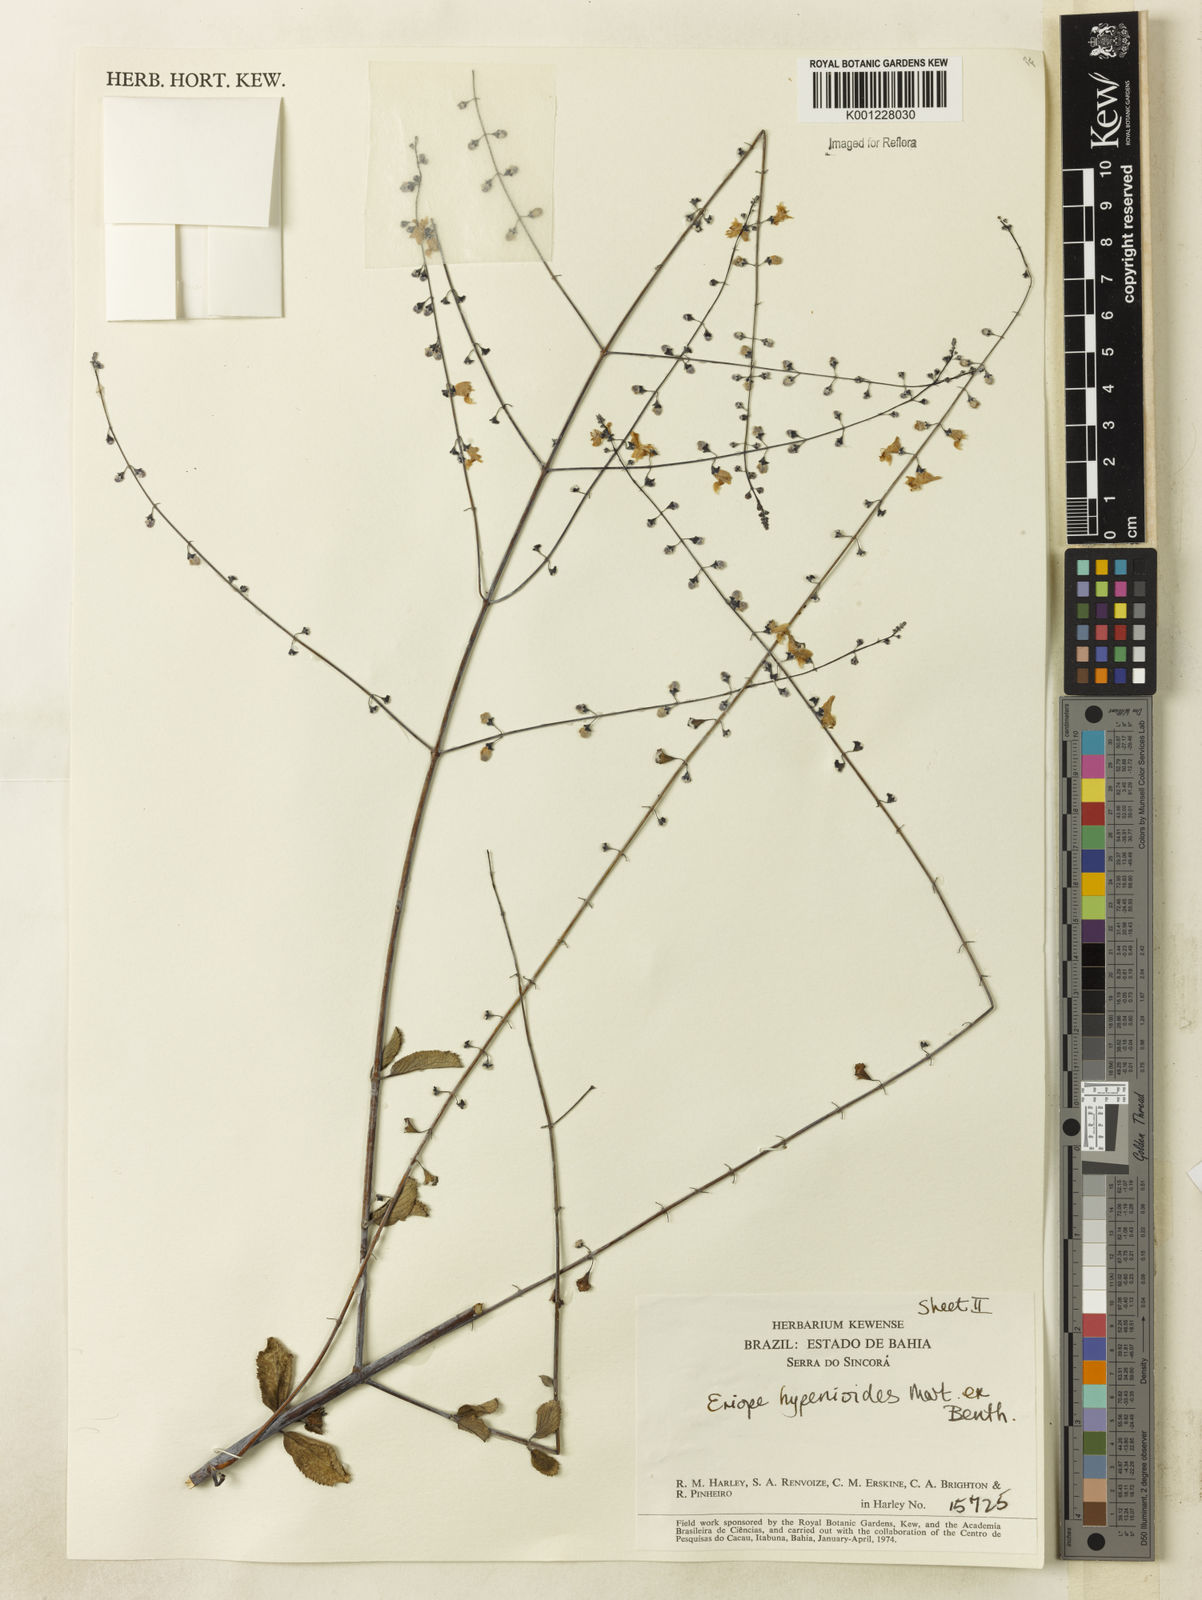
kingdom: Plantae
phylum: Tracheophyta
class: Magnoliopsida
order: Lamiales
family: Lamiaceae
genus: Eriope
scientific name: Eriope hypenioides
